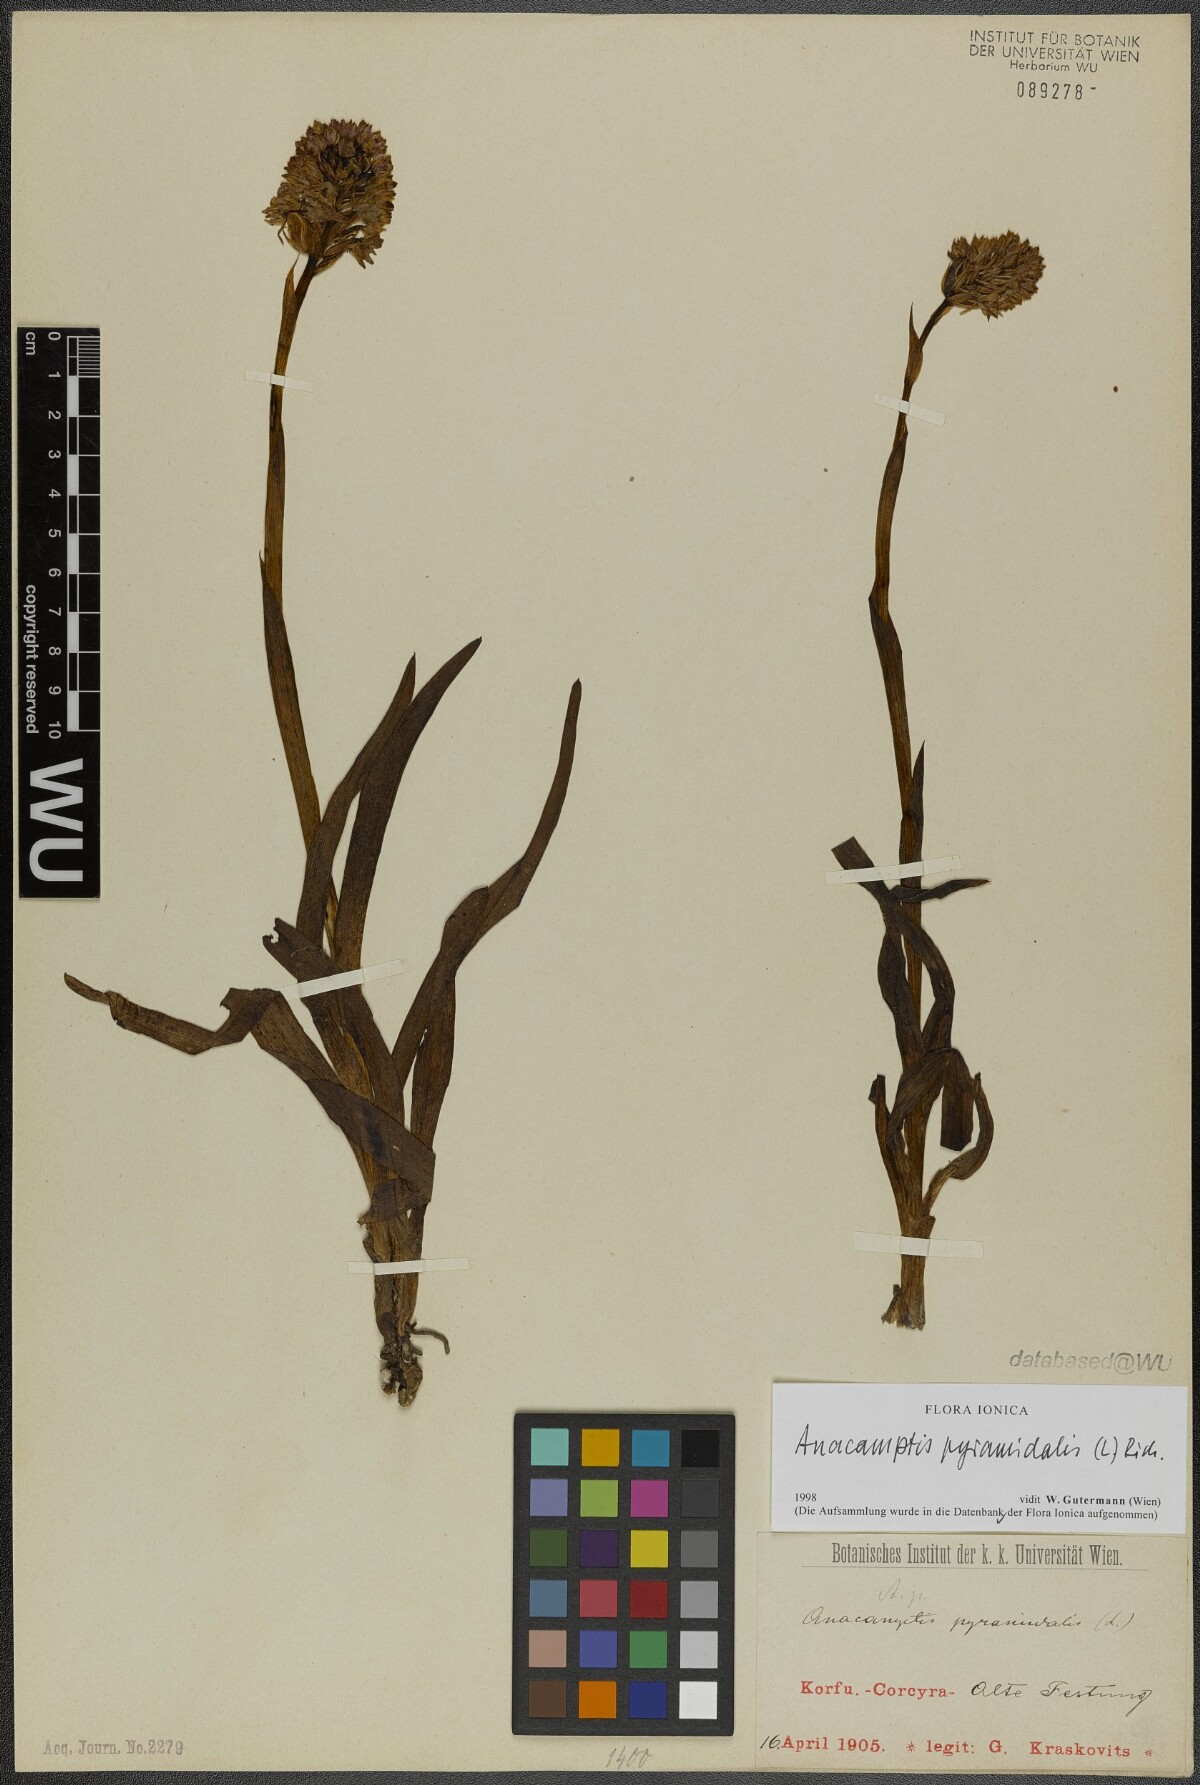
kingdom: Plantae
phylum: Tracheophyta
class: Liliopsida
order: Asparagales
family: Orchidaceae
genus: Anacamptis
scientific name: Anacamptis pyramidalis
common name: Pyramidal orchid
